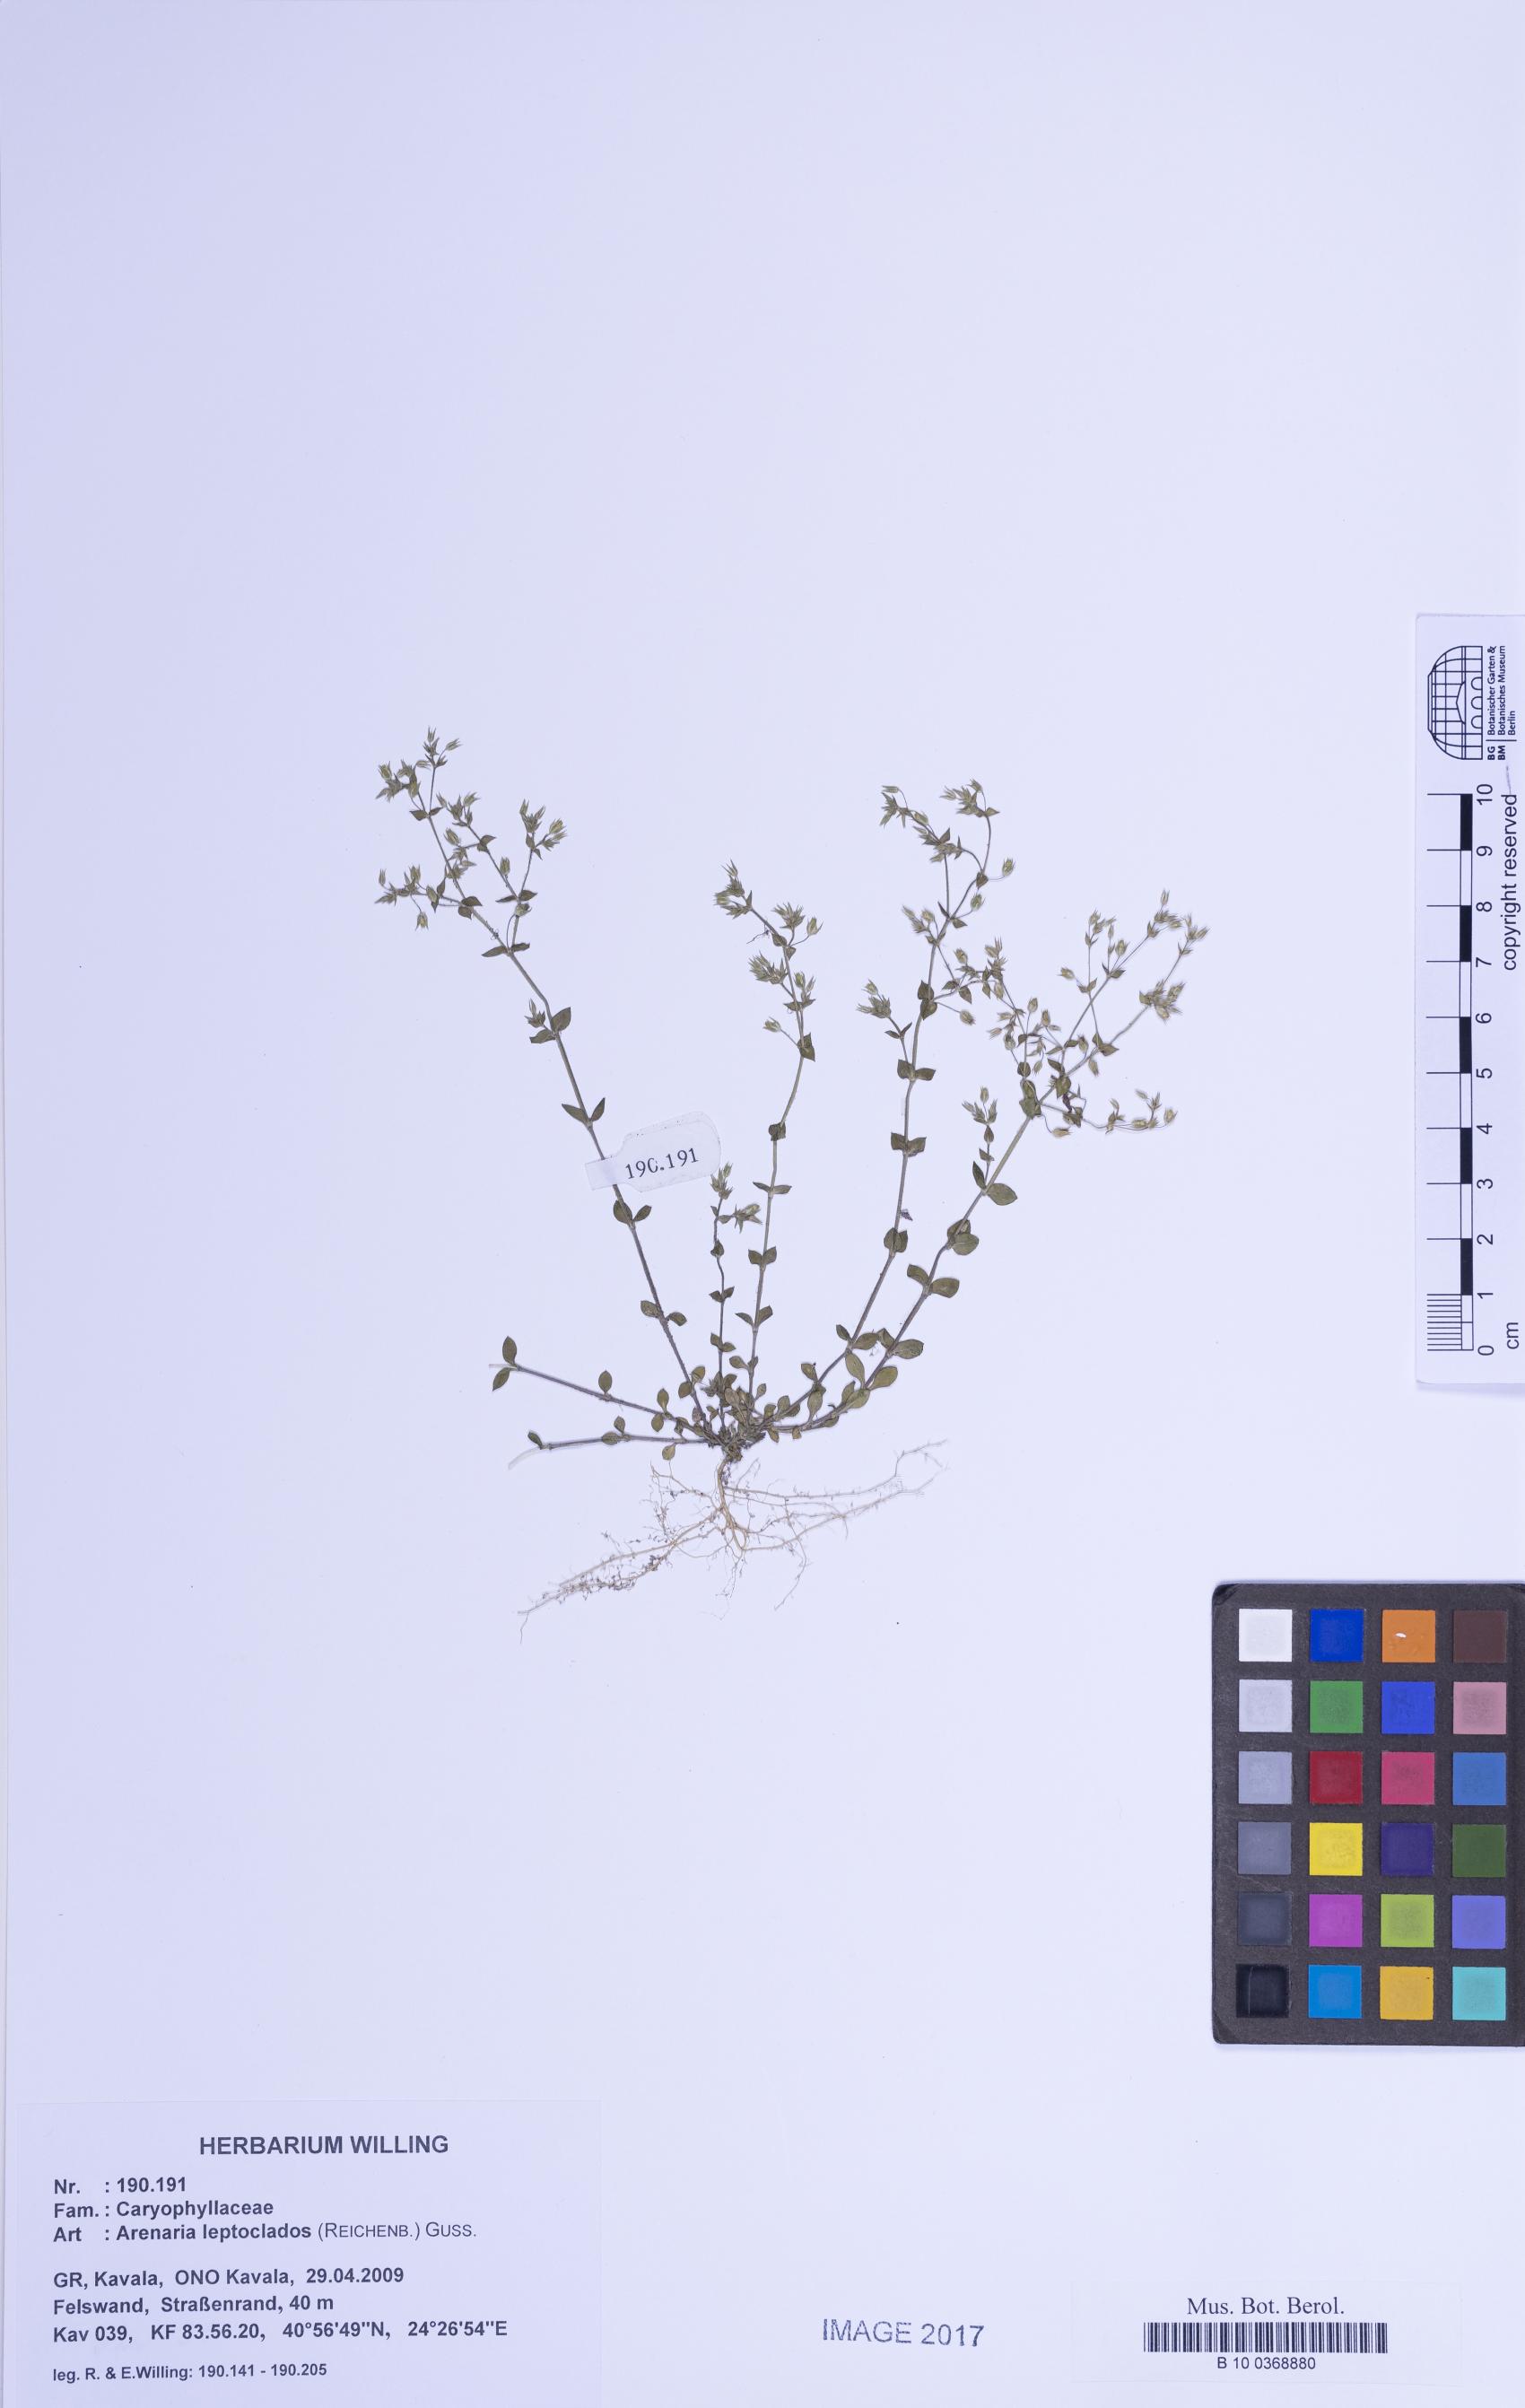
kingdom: Plantae
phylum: Tracheophyta
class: Magnoliopsida
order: Caryophyllales
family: Caryophyllaceae
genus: Arenaria
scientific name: Arenaria leptoclados
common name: Thyme-leaved sandwort
